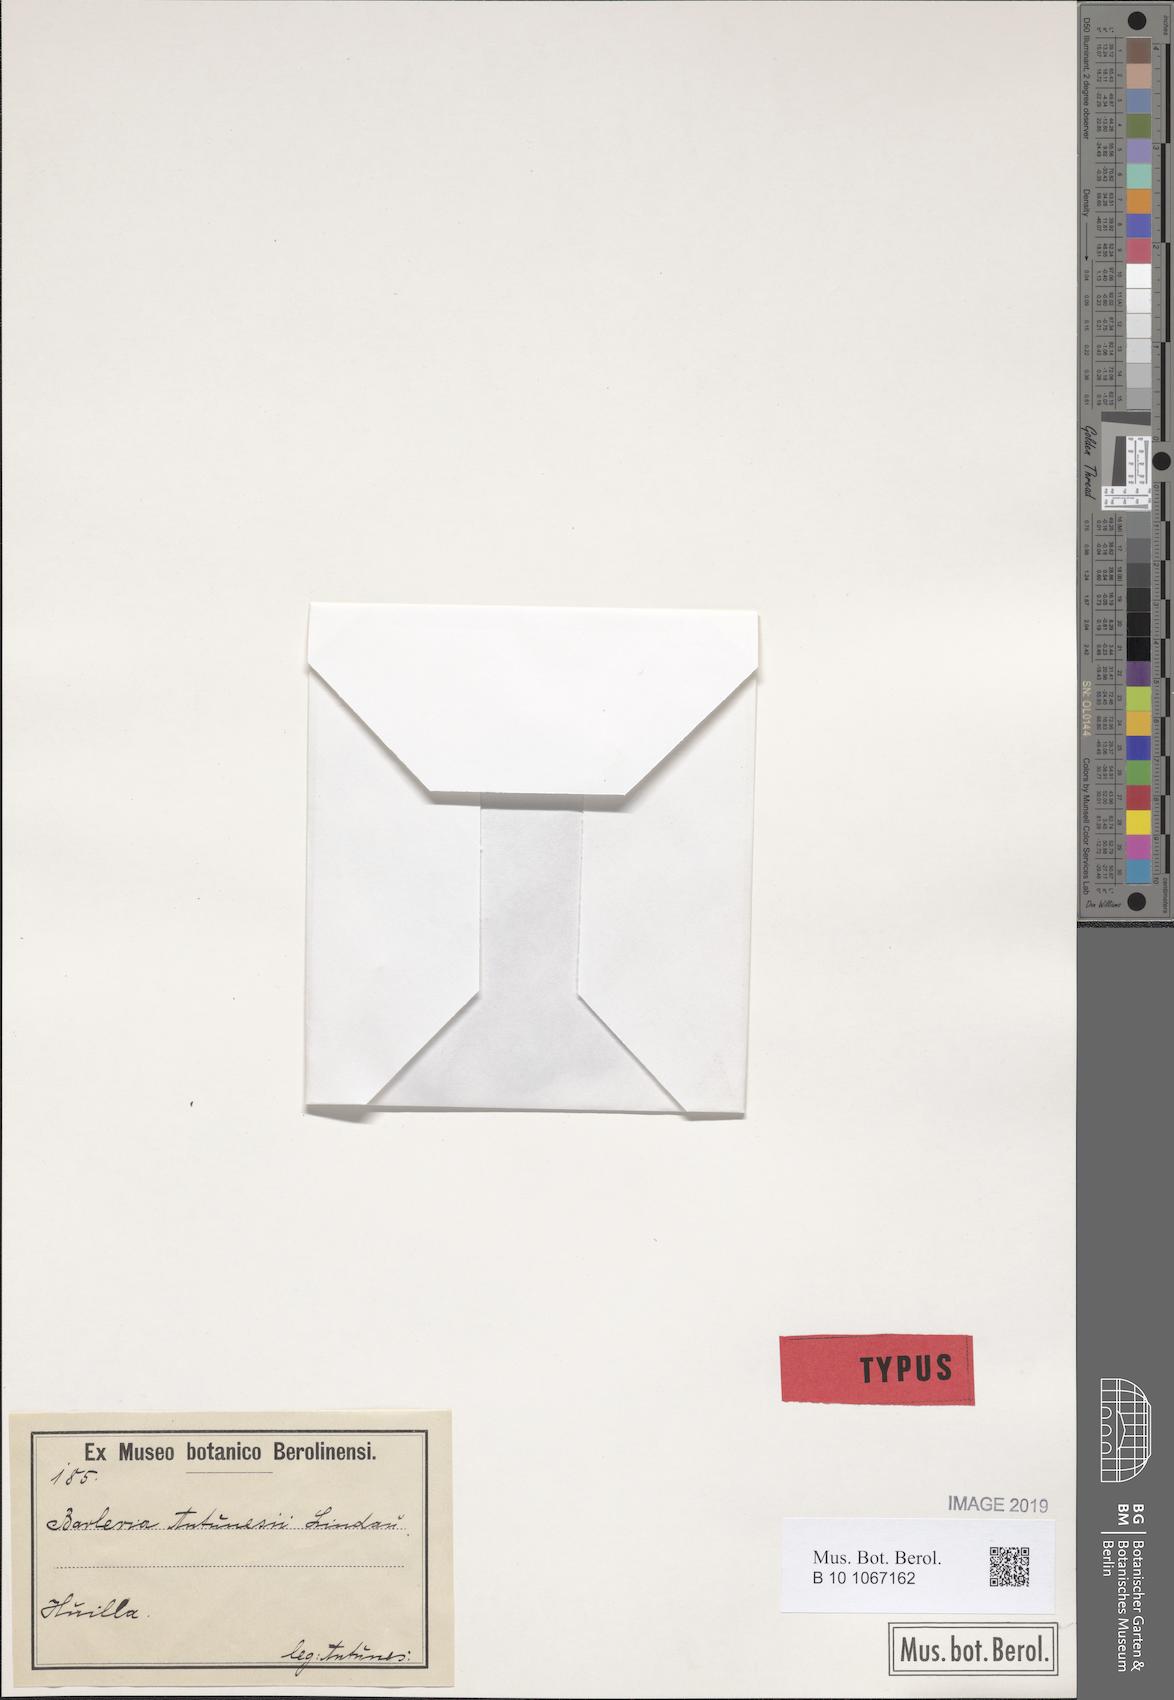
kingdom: Plantae
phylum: Tracheophyta
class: Magnoliopsida
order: Lamiales
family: Acanthaceae
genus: Barleria
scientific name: Barleria antunesii
